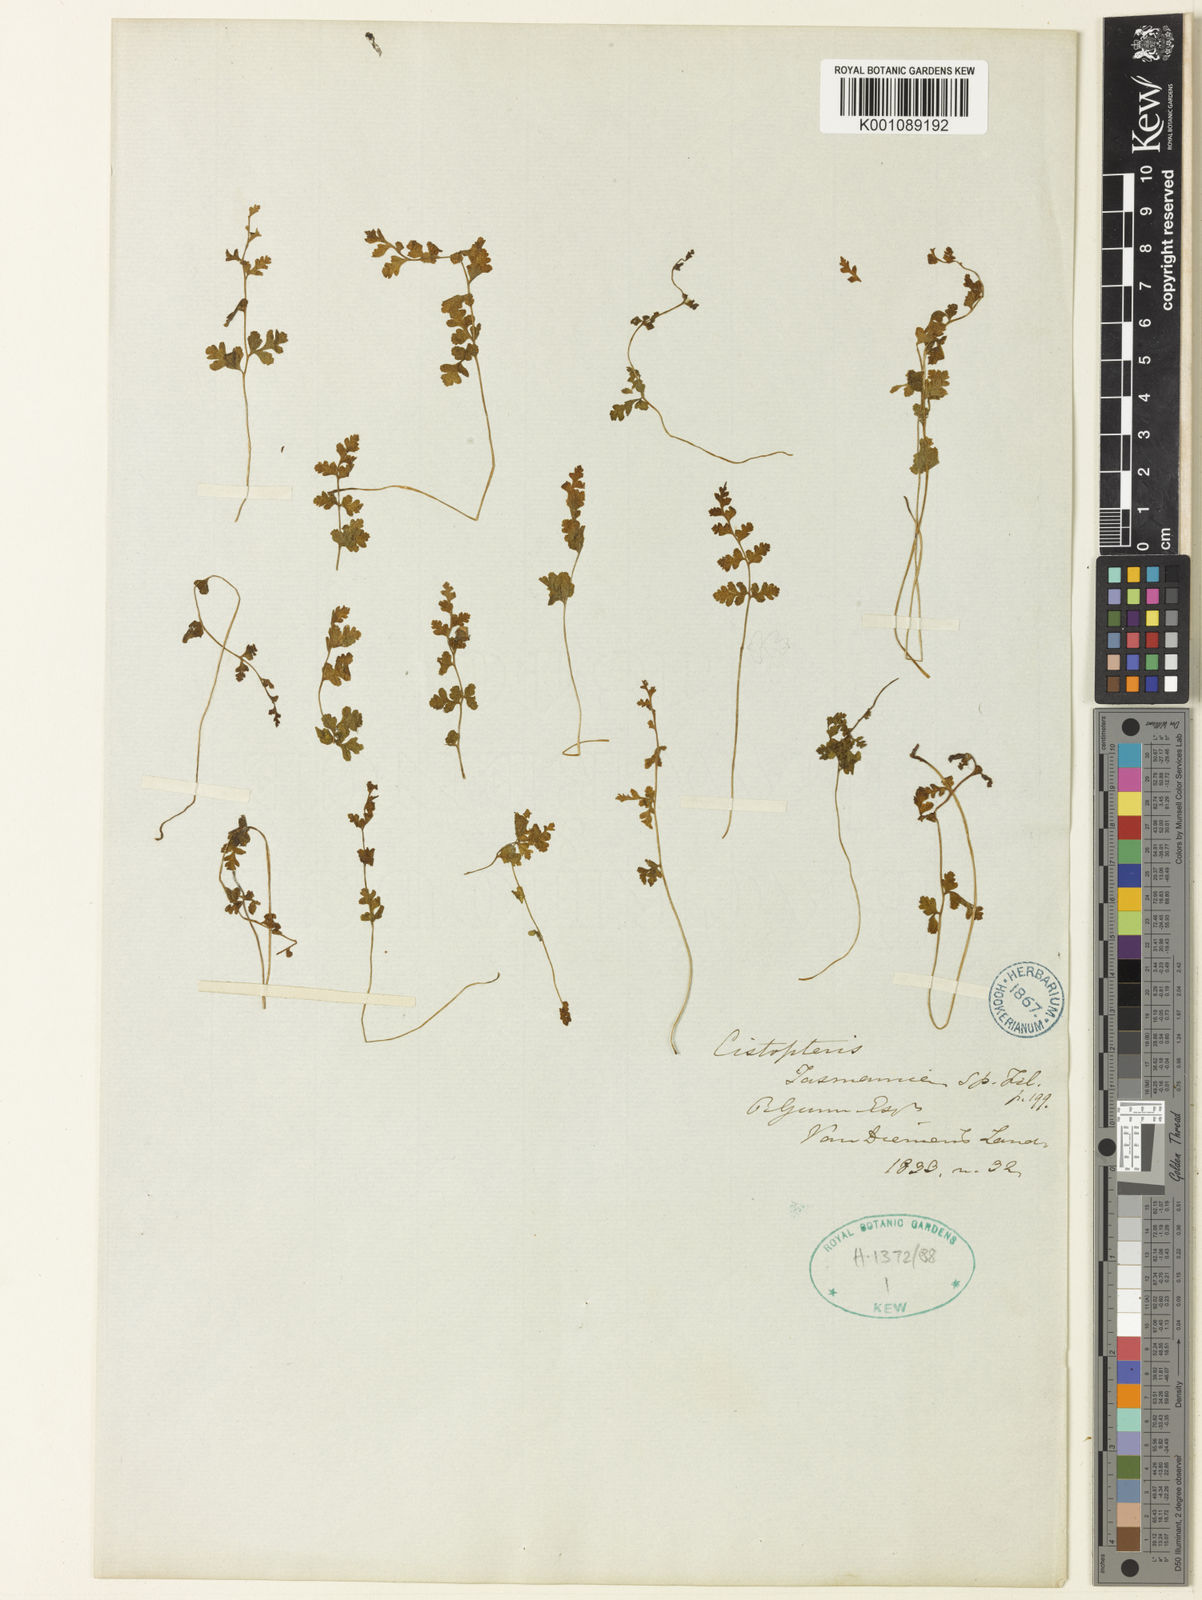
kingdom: Plantae
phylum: Tracheophyta
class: Polypodiopsida
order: Polypodiales
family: Cystopteridaceae
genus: Cystopteris
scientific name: Cystopteris tasmanica
